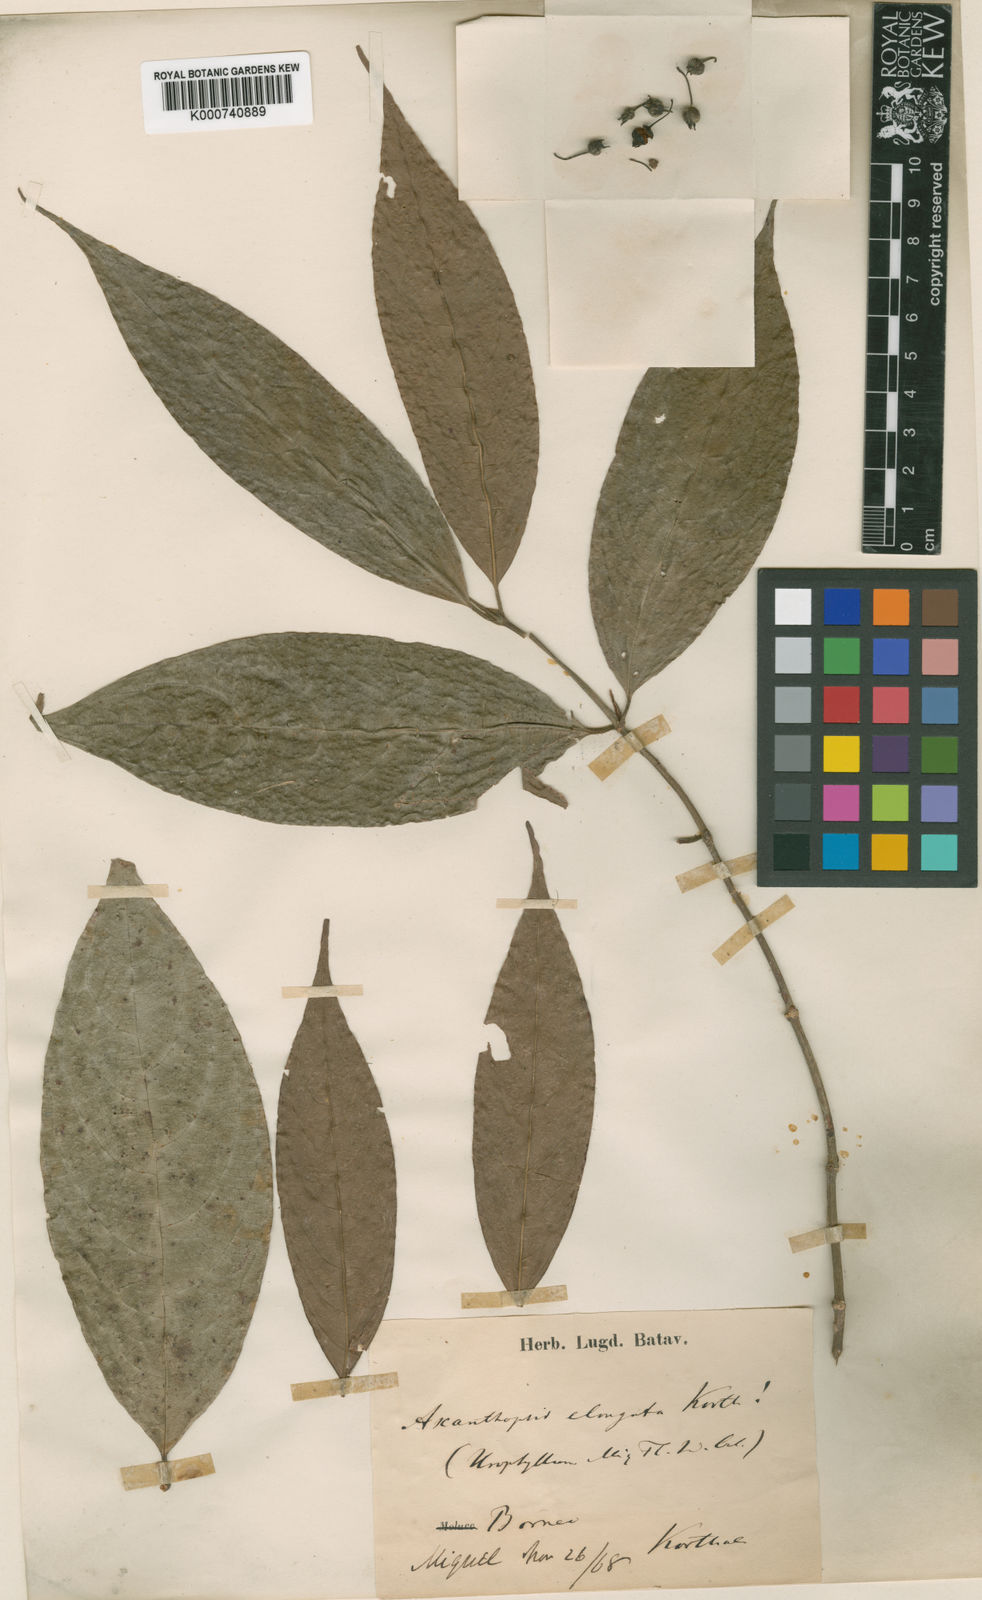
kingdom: Plantae
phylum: Tracheophyta
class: Magnoliopsida
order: Gentianales
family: Rubiaceae
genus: Urophyllum
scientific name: Urophyllum elongatum
